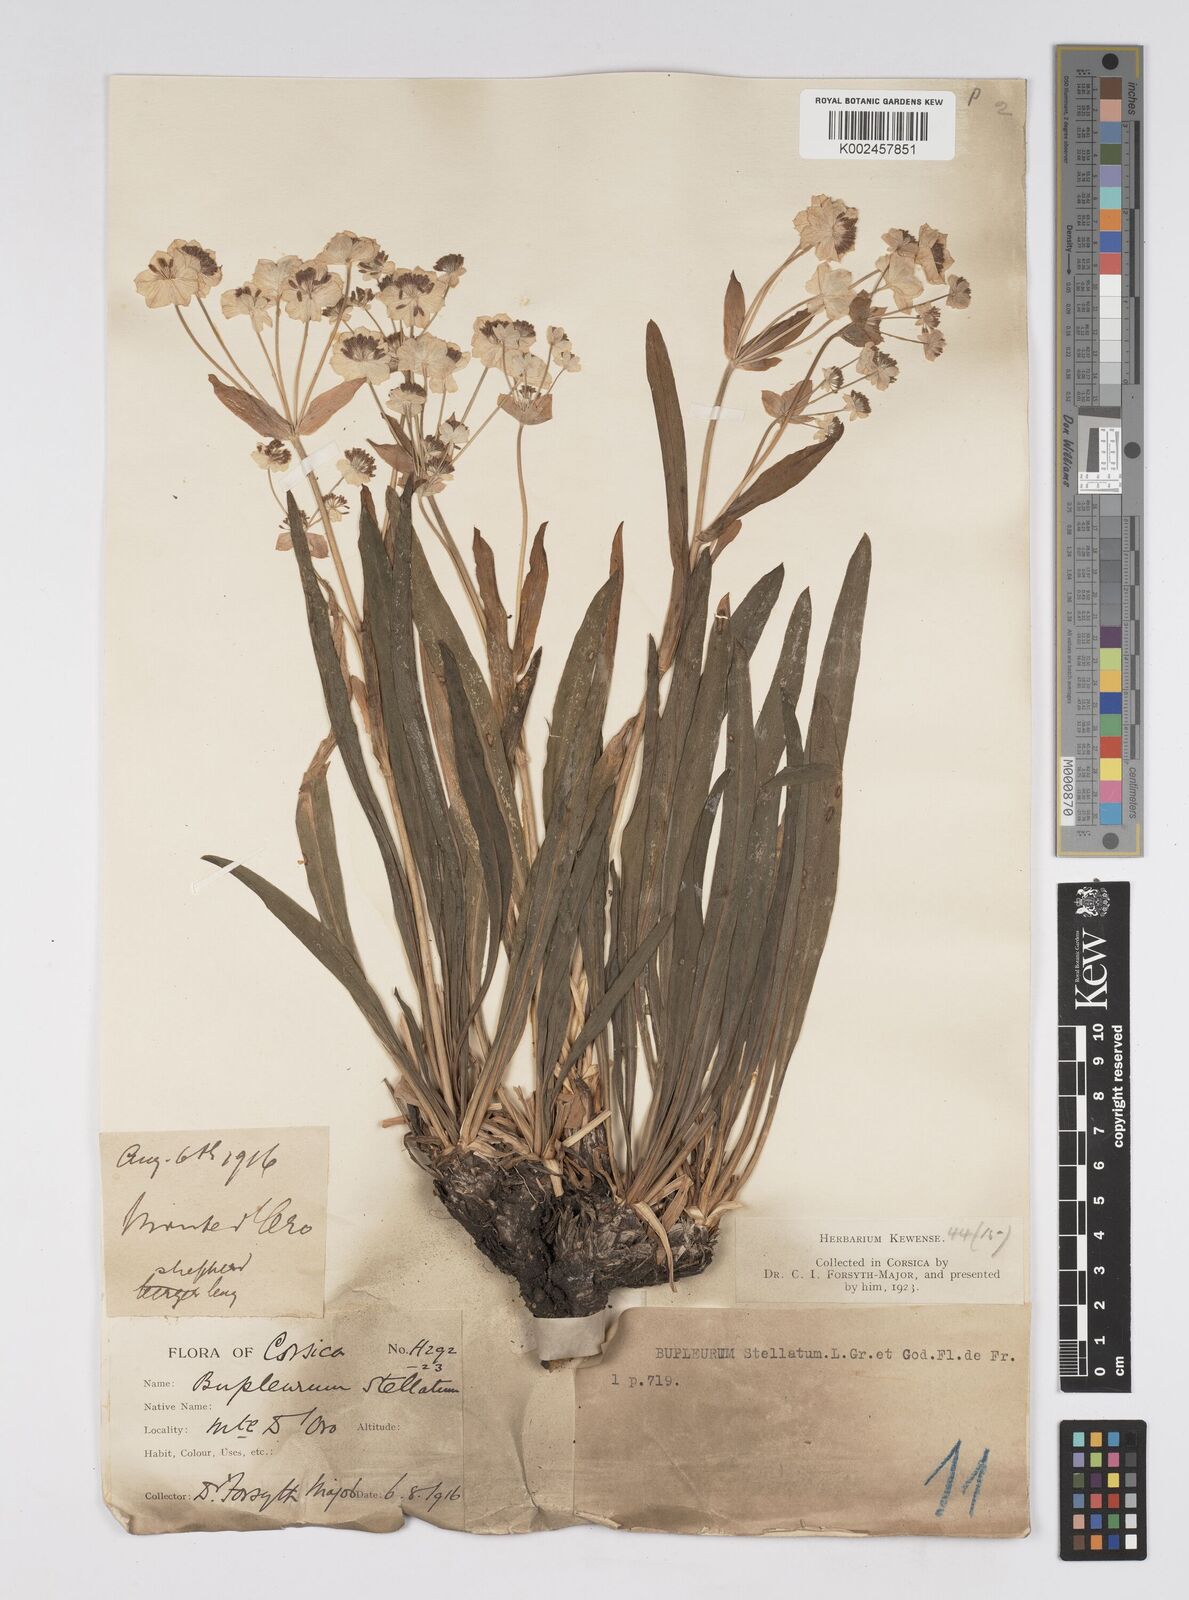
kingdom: Plantae
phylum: Tracheophyta
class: Magnoliopsida
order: Apiales
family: Apiaceae
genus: Bupleurum
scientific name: Bupleurum stellatum
